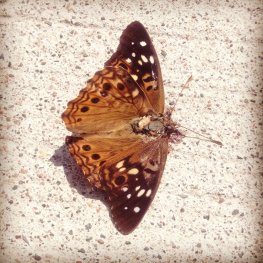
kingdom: Animalia
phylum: Arthropoda
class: Insecta
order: Lepidoptera
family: Nymphalidae
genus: Asterocampa
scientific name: Asterocampa celtis
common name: Hackberry Emperor
